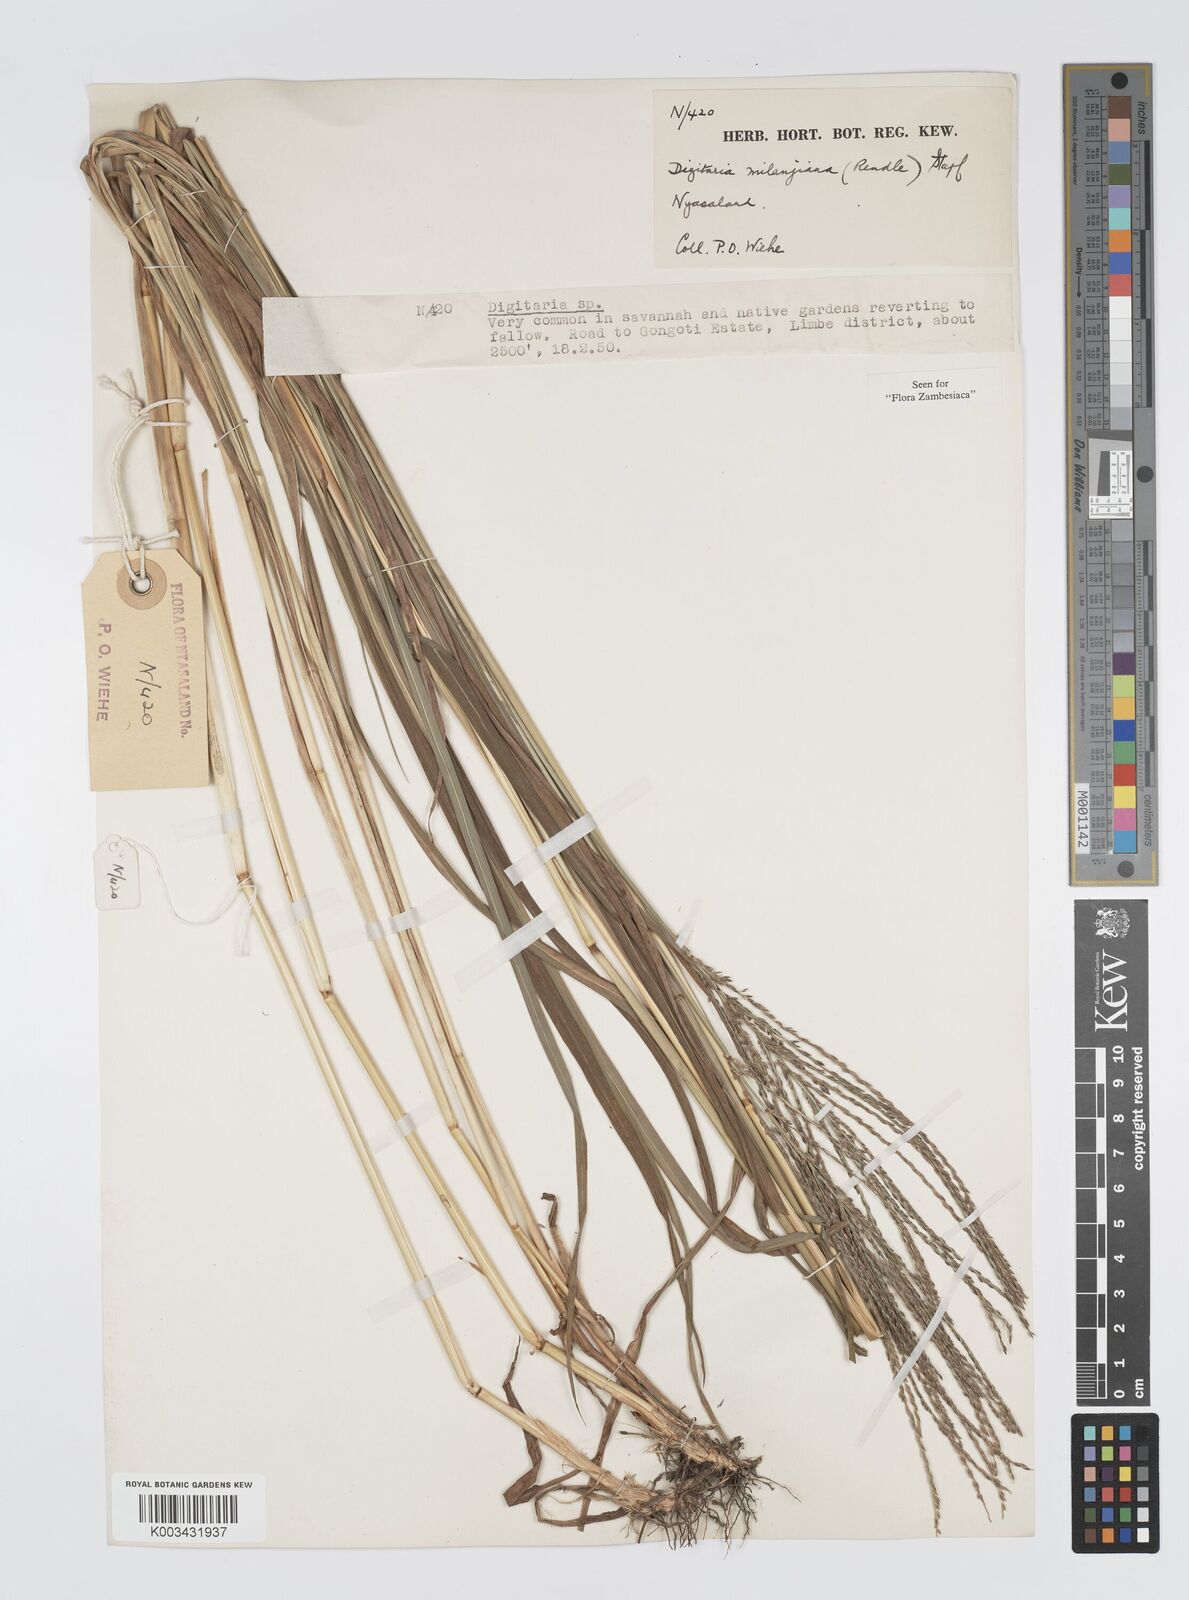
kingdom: Plantae
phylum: Tracheophyta
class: Liliopsida
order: Poales
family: Poaceae
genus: Digitaria
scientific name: Digitaria milanjiana
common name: Madagascar crabgrass
